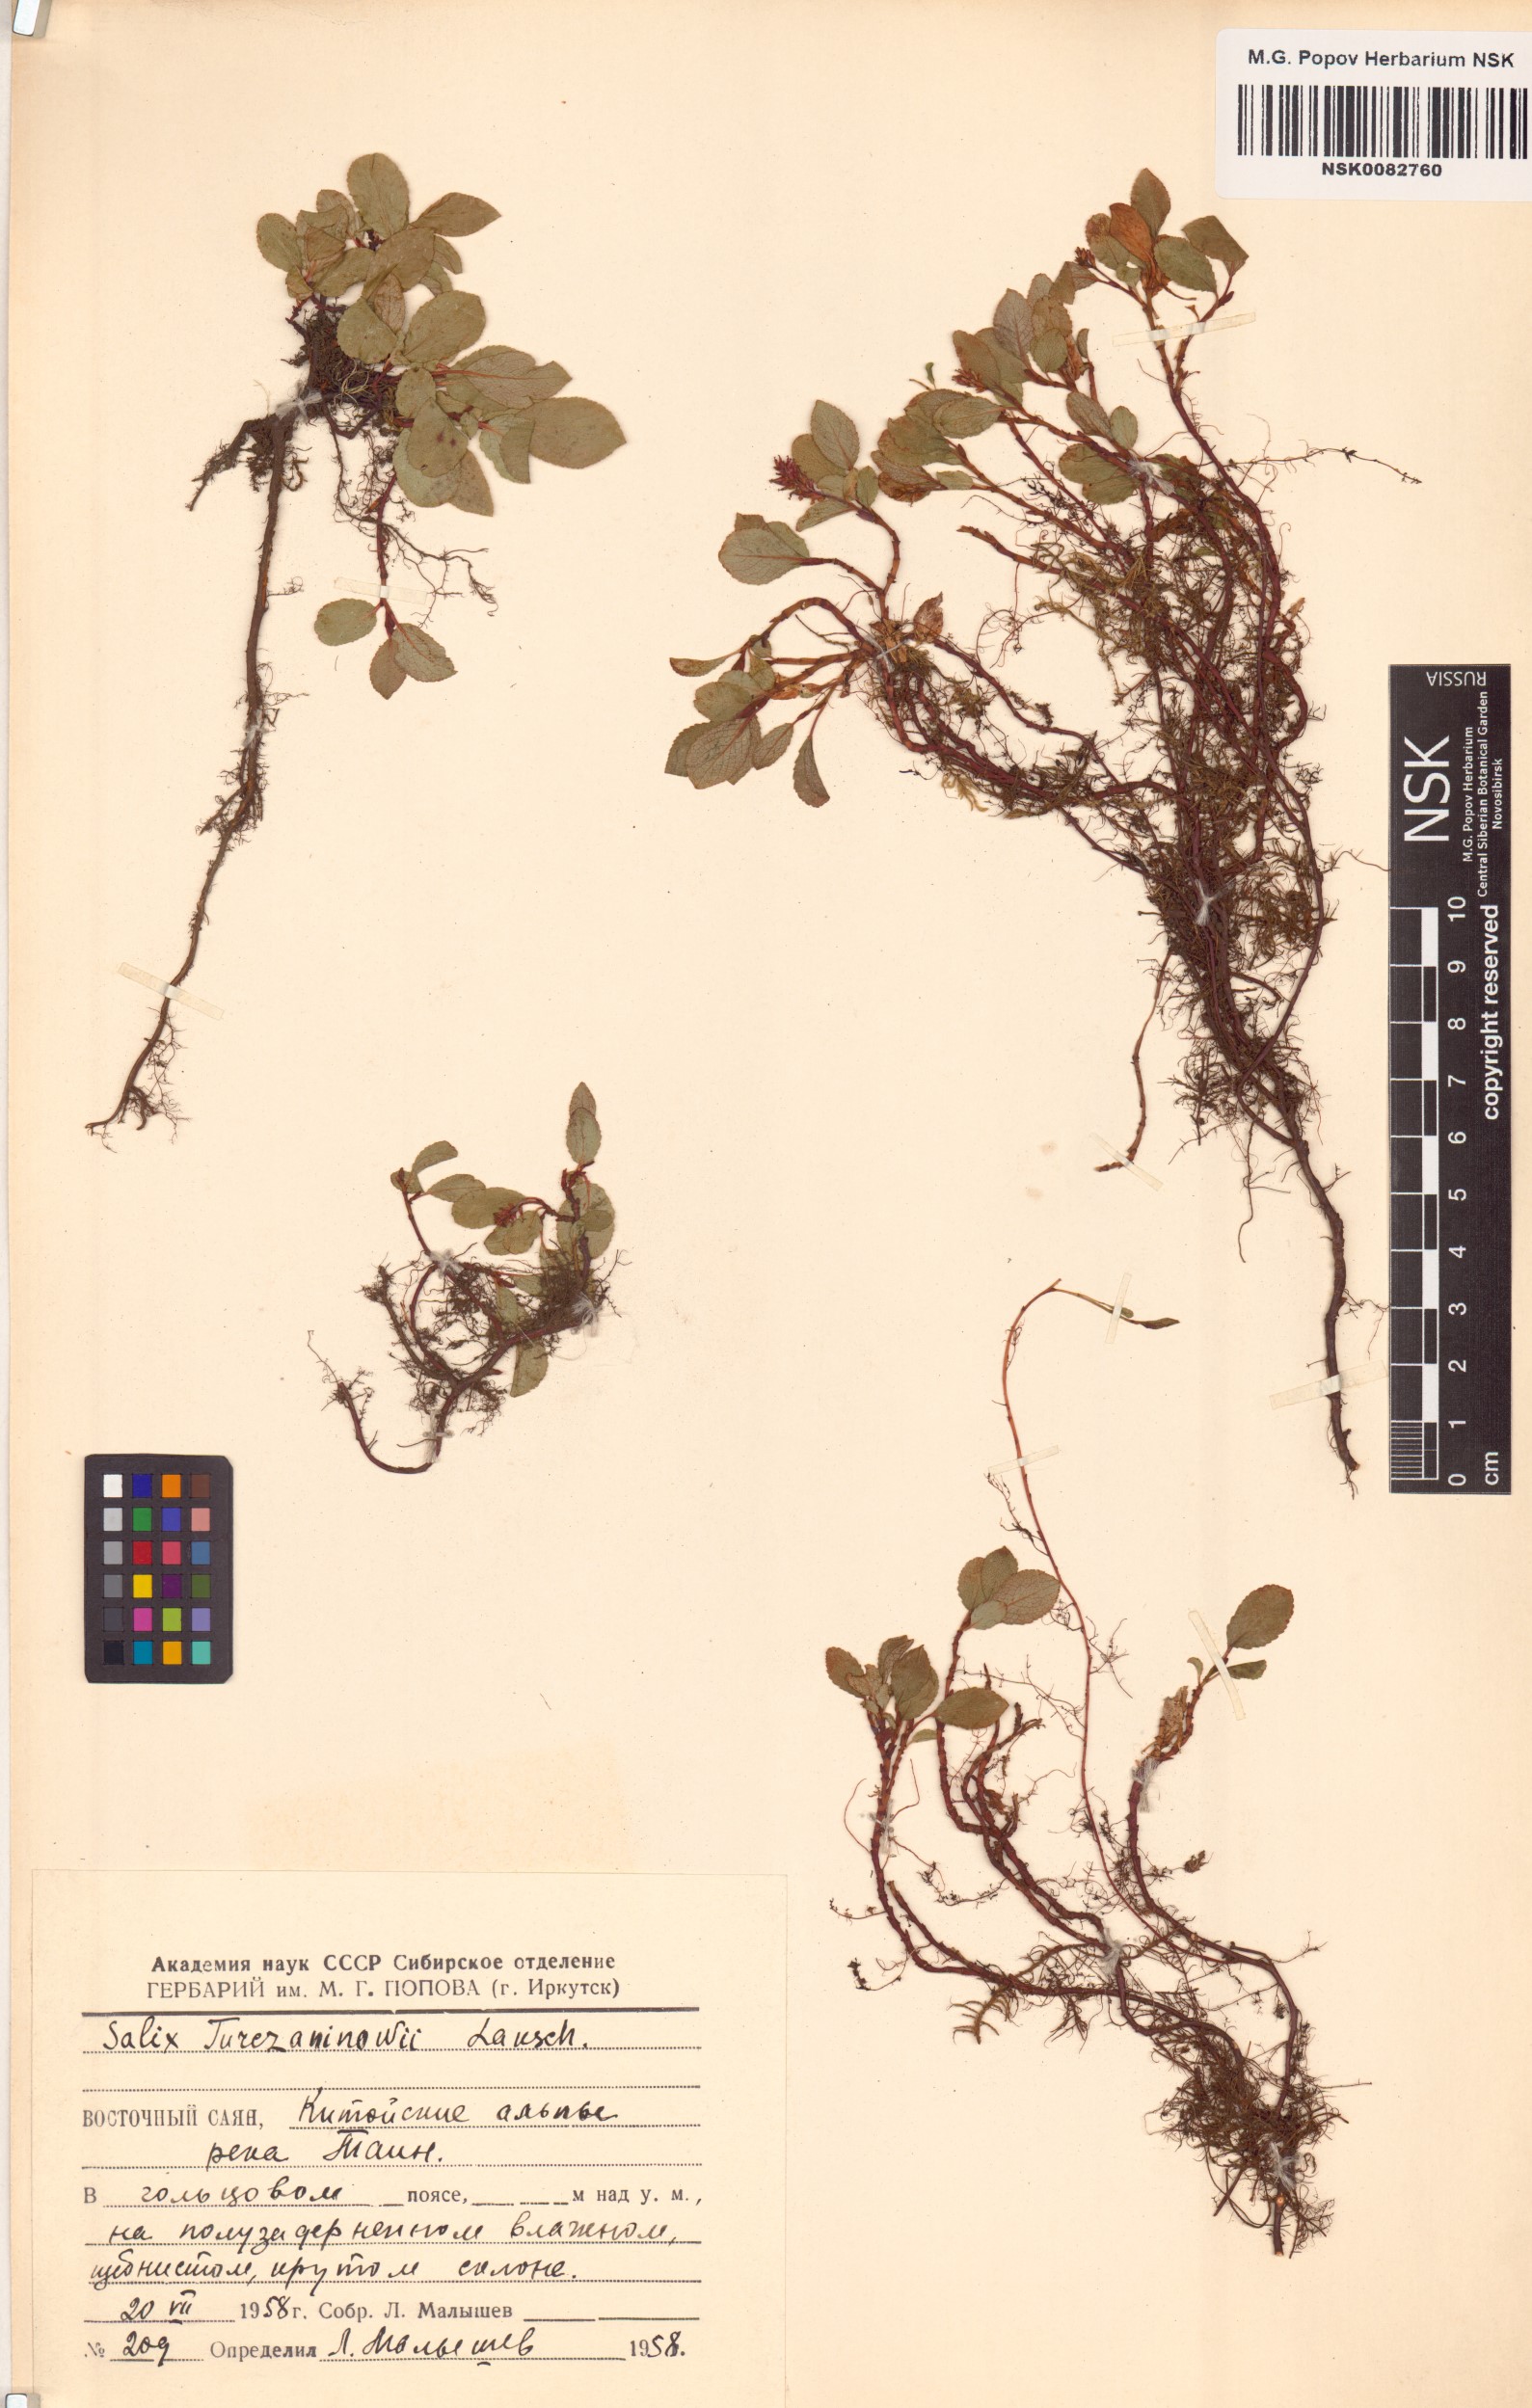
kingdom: Plantae
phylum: Tracheophyta
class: Magnoliopsida
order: Malpighiales
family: Salicaceae
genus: Salix
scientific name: Salix turczaninowii
